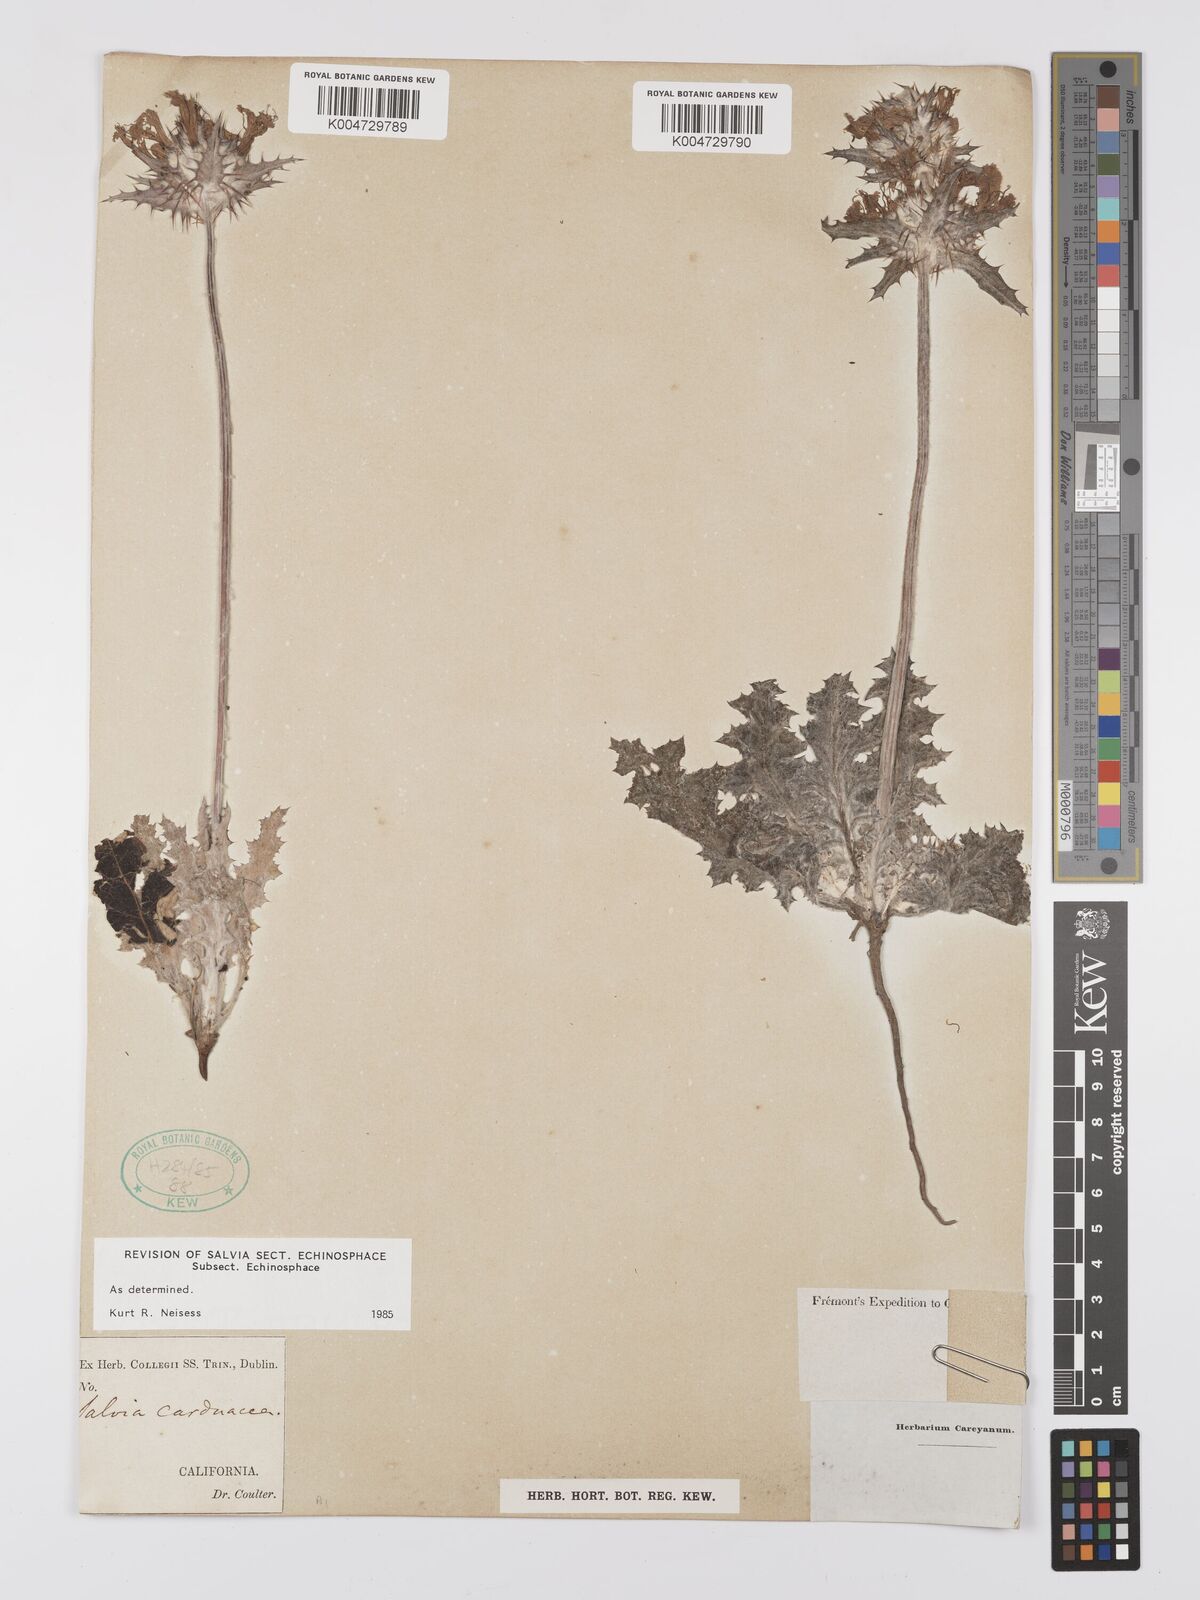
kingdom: Plantae
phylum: Tracheophyta
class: Magnoliopsida
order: Lamiales
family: Lamiaceae
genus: Salvia
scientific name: Salvia carduacea
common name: Thistle sage
